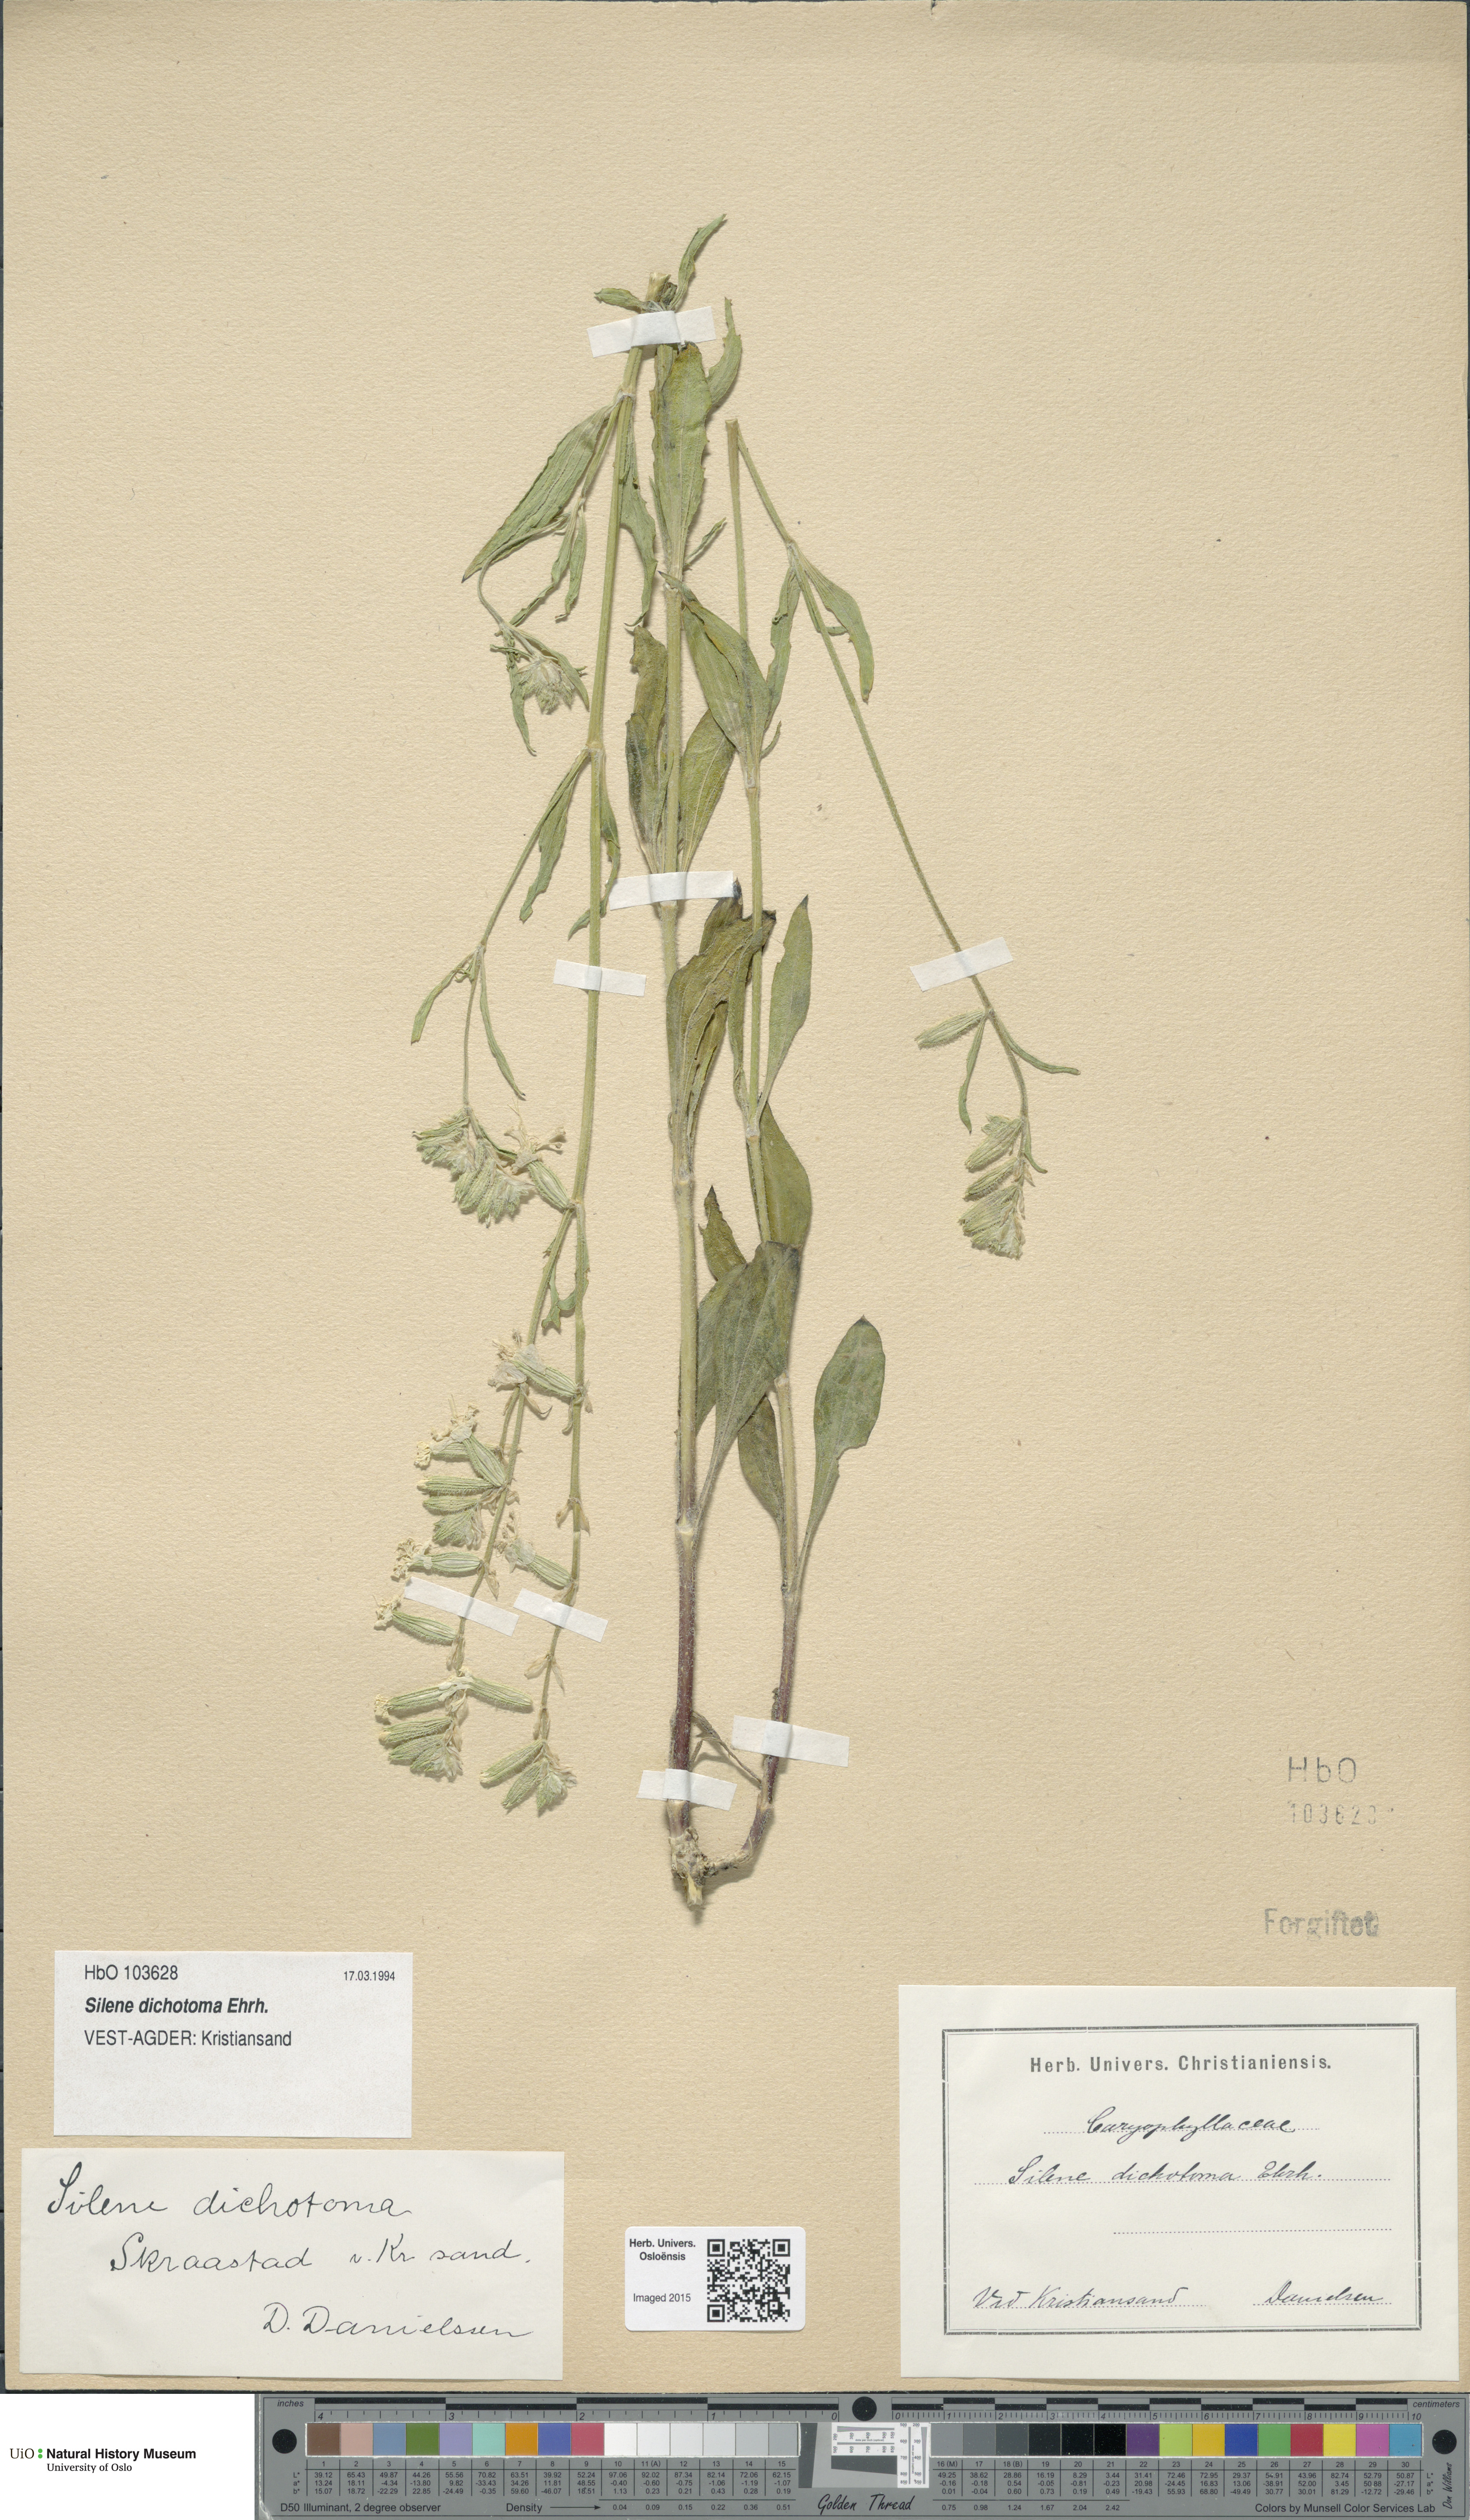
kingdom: Plantae
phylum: Tracheophyta
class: Magnoliopsida
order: Caryophyllales
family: Caryophyllaceae
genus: Silene
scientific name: Silene dichotoma
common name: Forked catchfly
